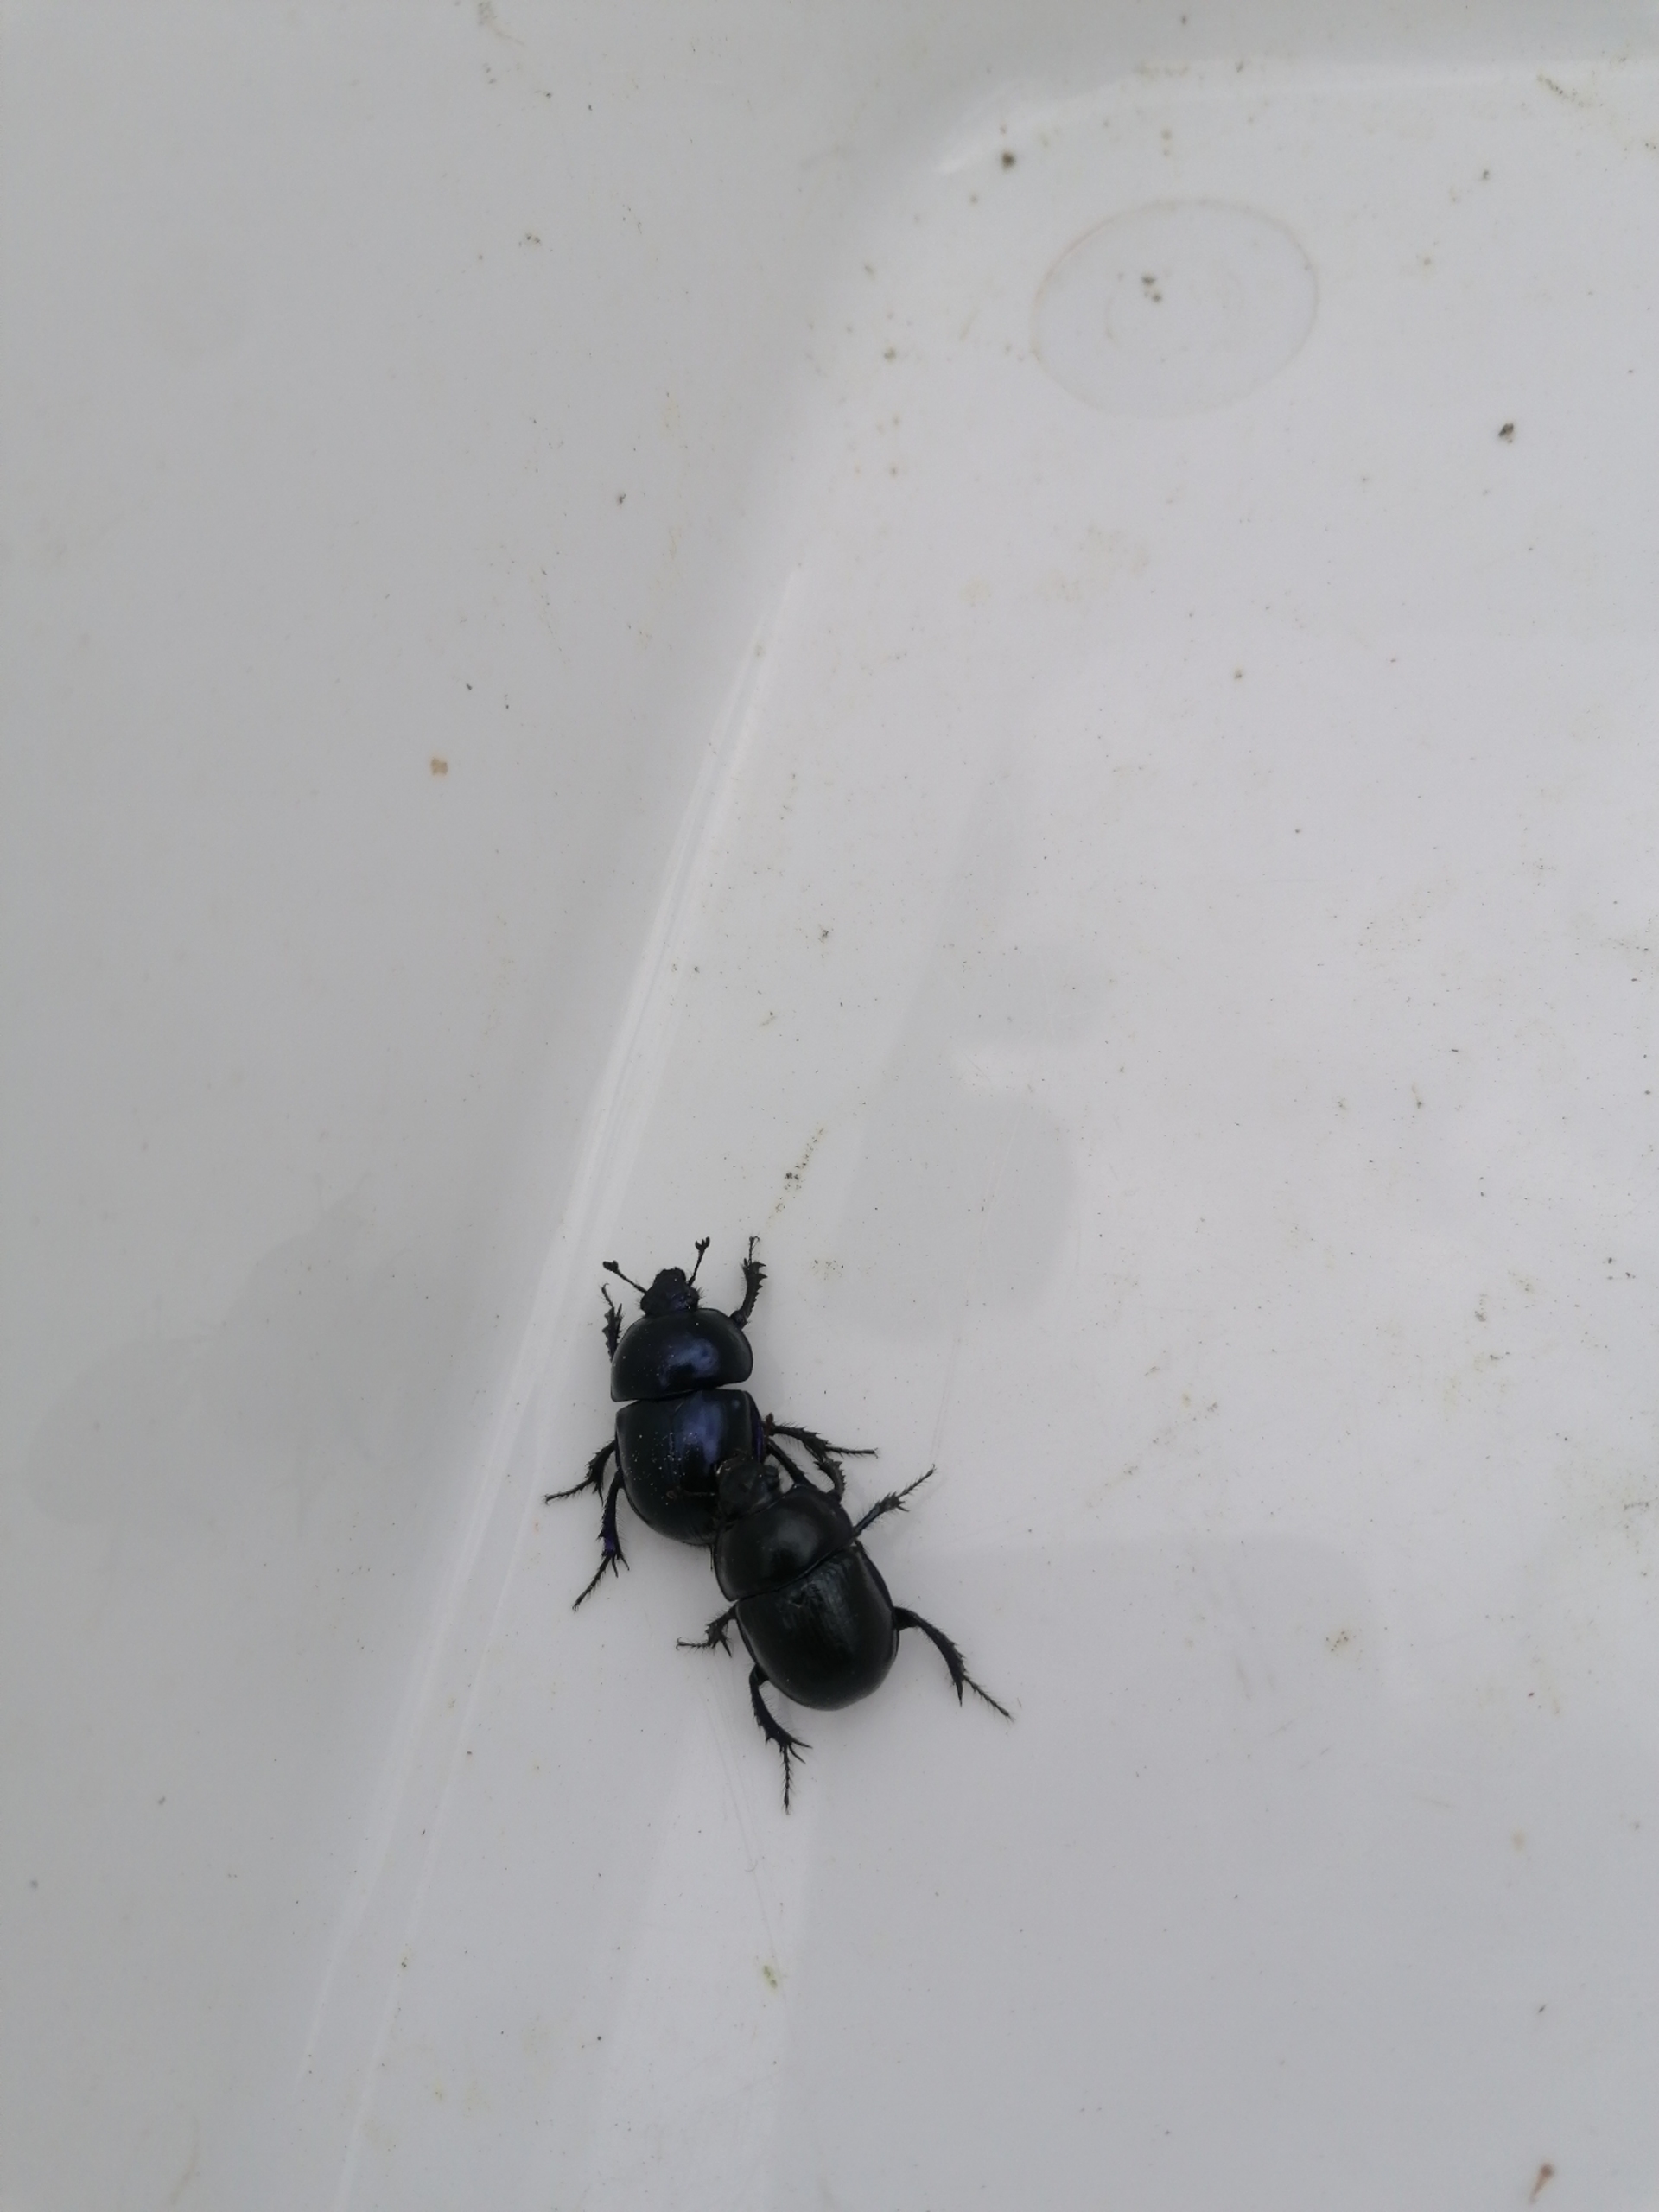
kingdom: Animalia
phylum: Arthropoda
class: Insecta
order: Coleoptera
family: Geotrupidae
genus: Trypocopris
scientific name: Trypocopris vernalis
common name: Glat skarnbasse
